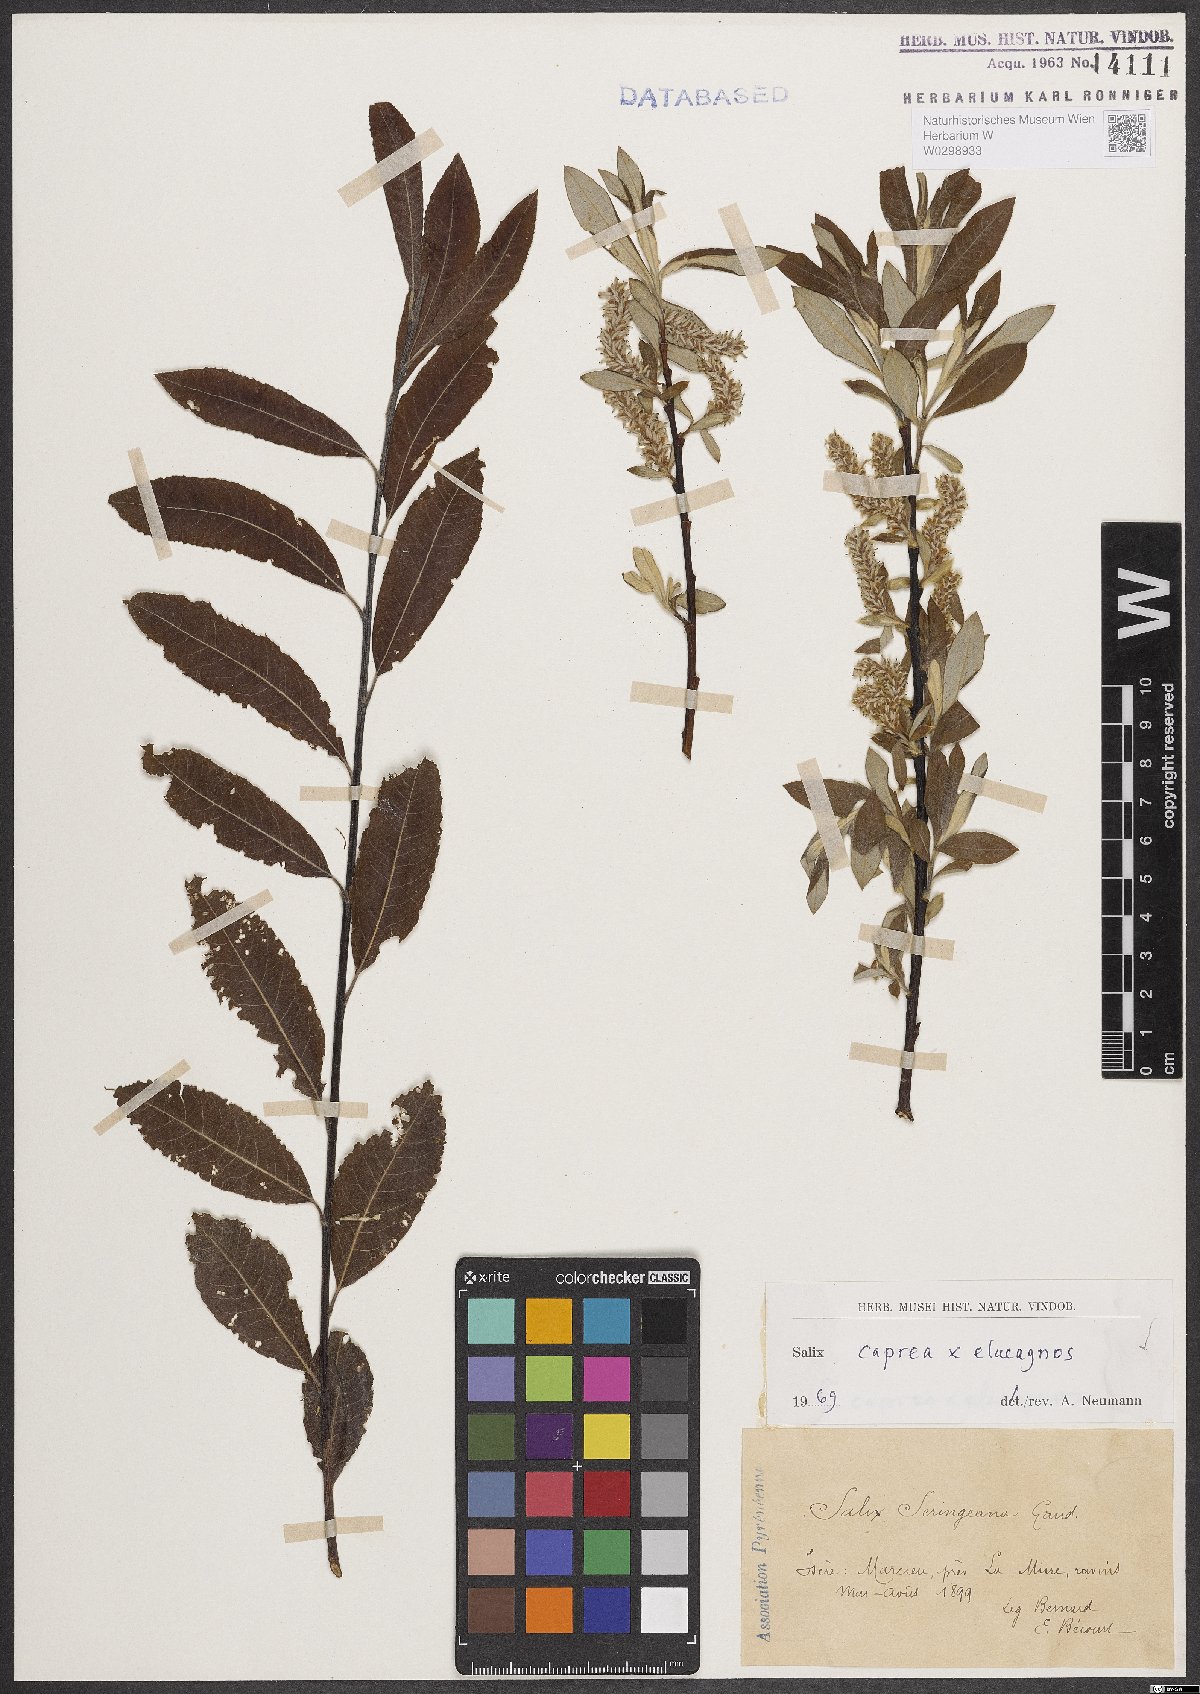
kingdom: Plantae
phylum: Tracheophyta
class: Magnoliopsida
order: Malpighiales
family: Salicaceae
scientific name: Salicaceae
